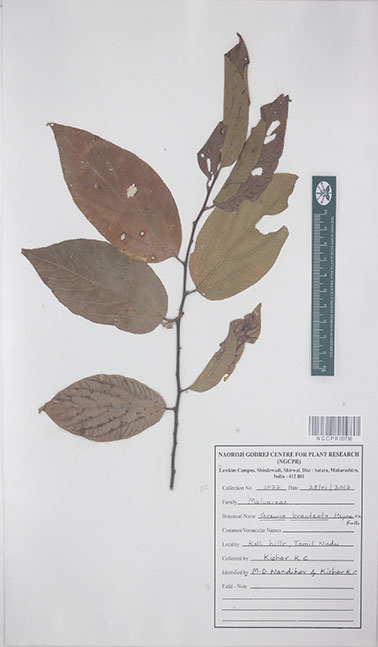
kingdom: Plantae
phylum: Tracheophyta
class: Magnoliopsida
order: Malvales
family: Malvaceae
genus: Grewia
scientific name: Grewia bracteata
